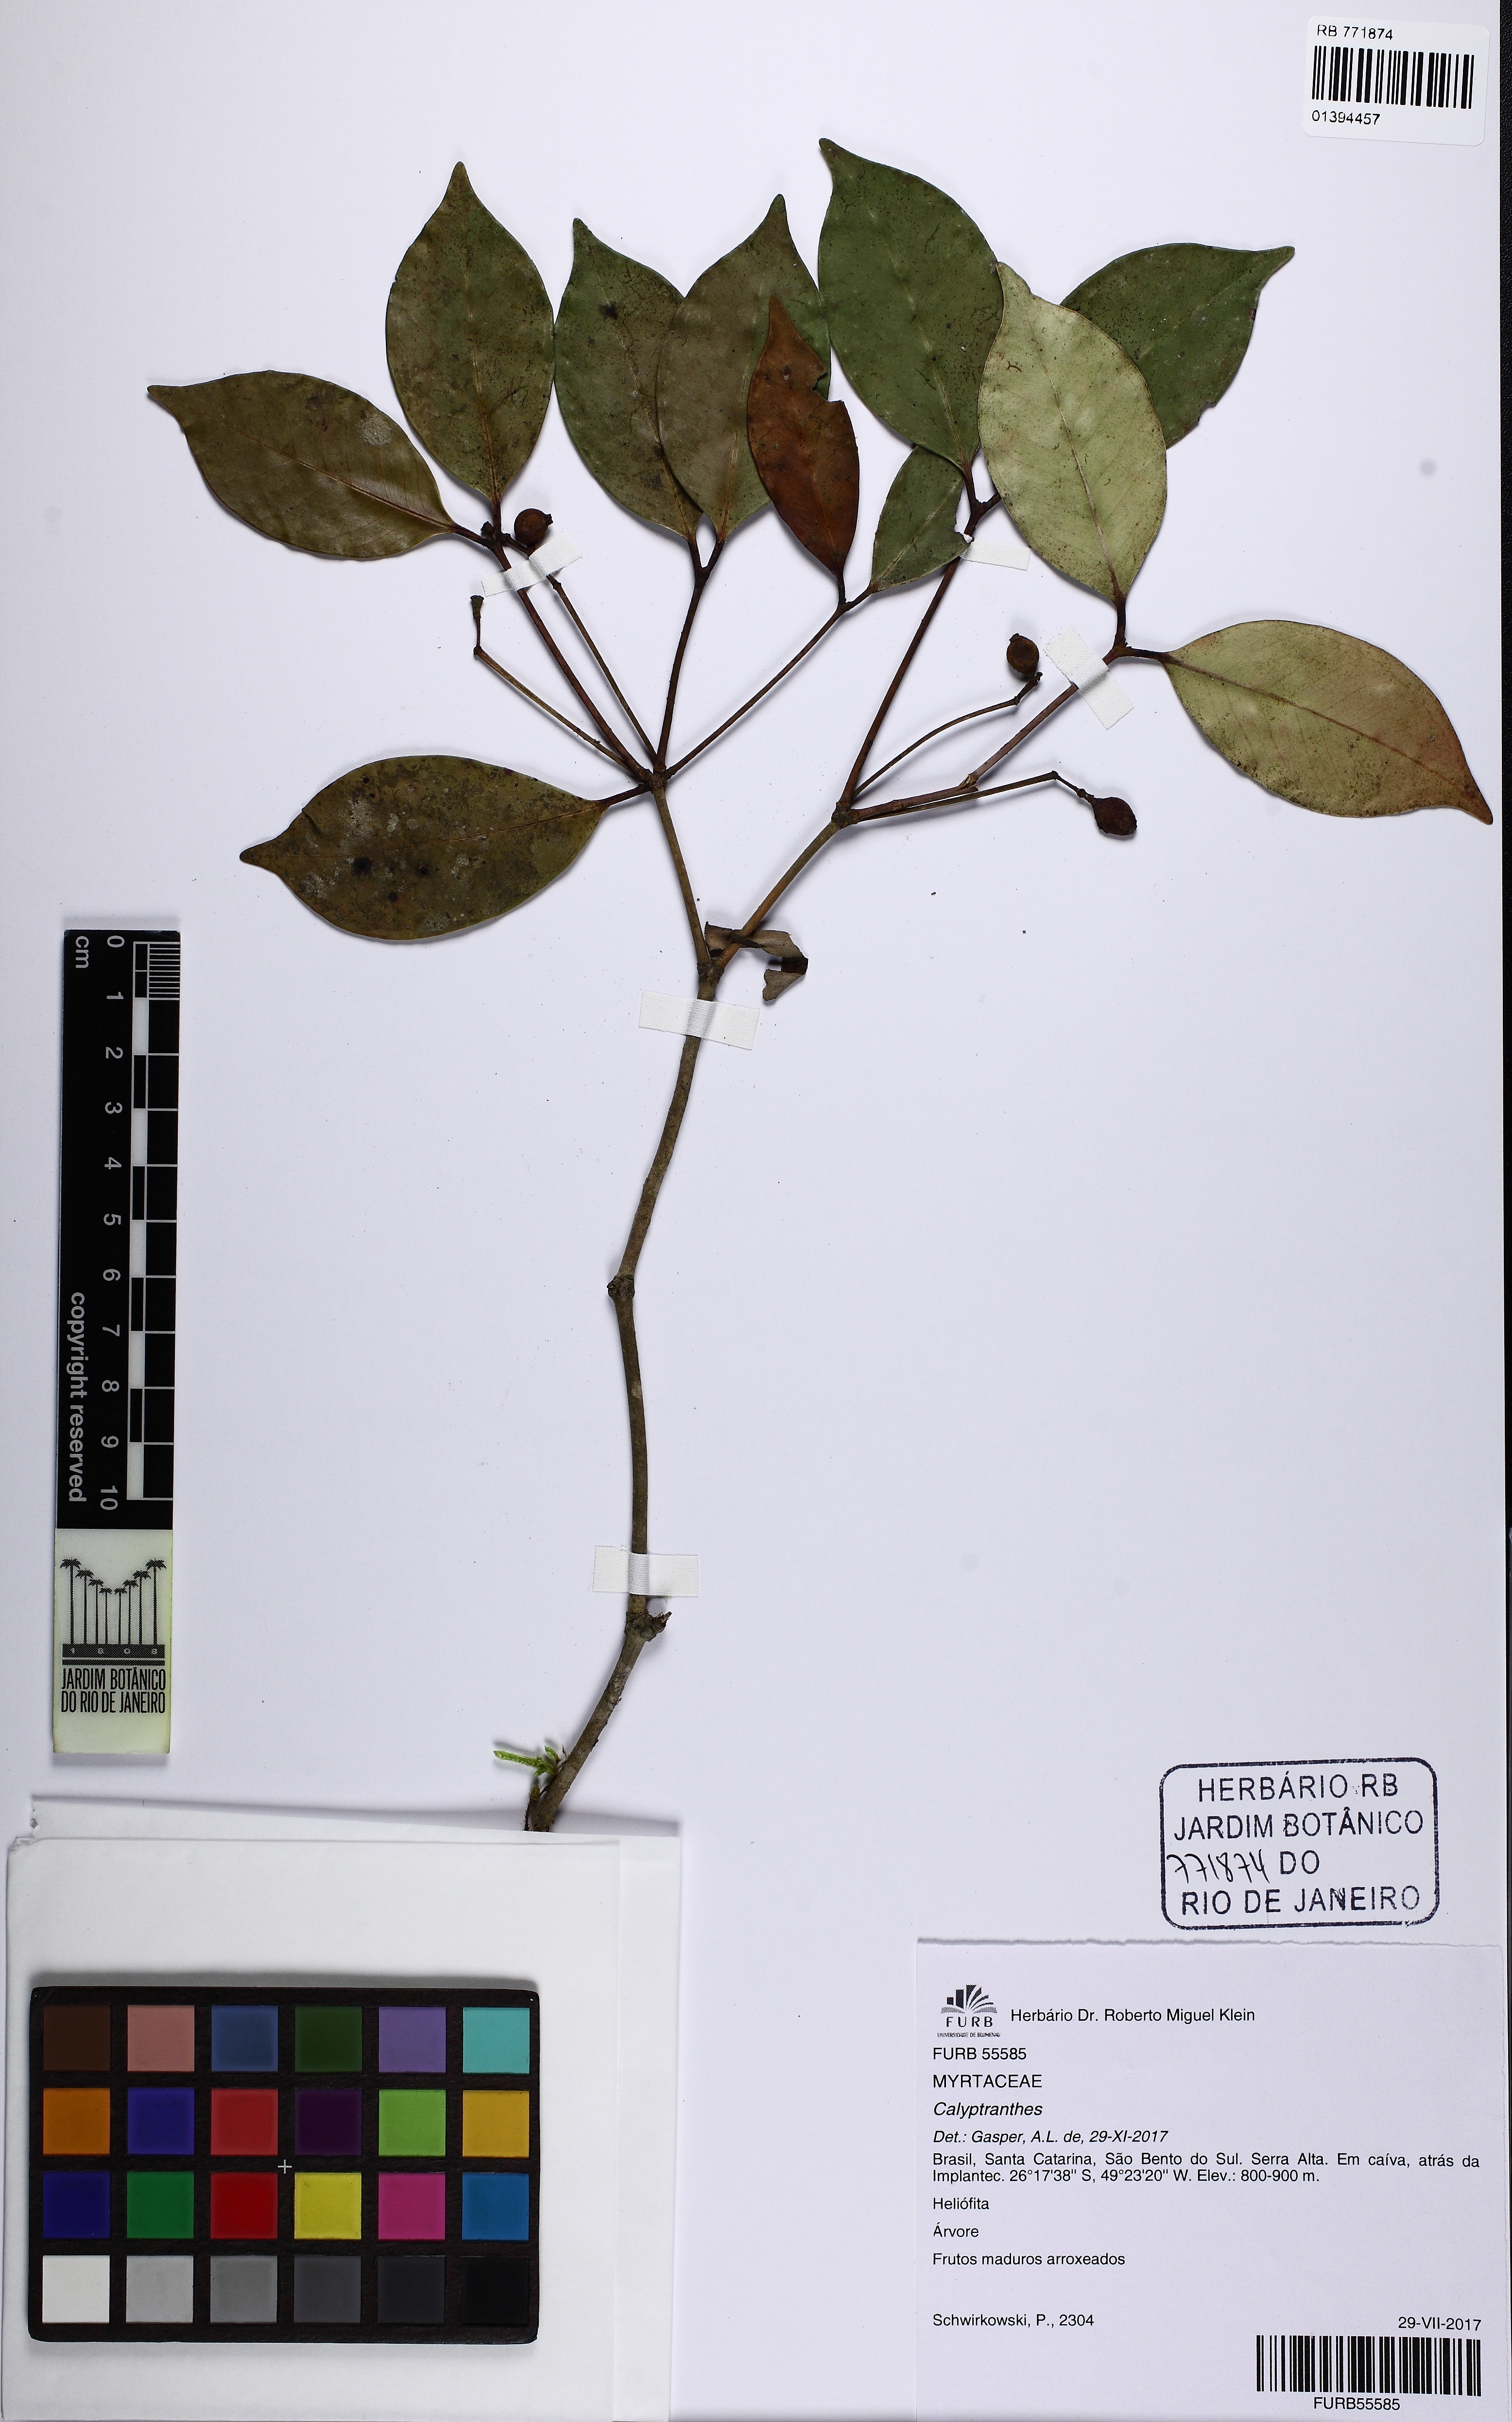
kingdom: Plantae
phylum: Tracheophyta
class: Magnoliopsida
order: Myrtales
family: Myrtaceae
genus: Myrcia
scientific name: Myrcia pileata
